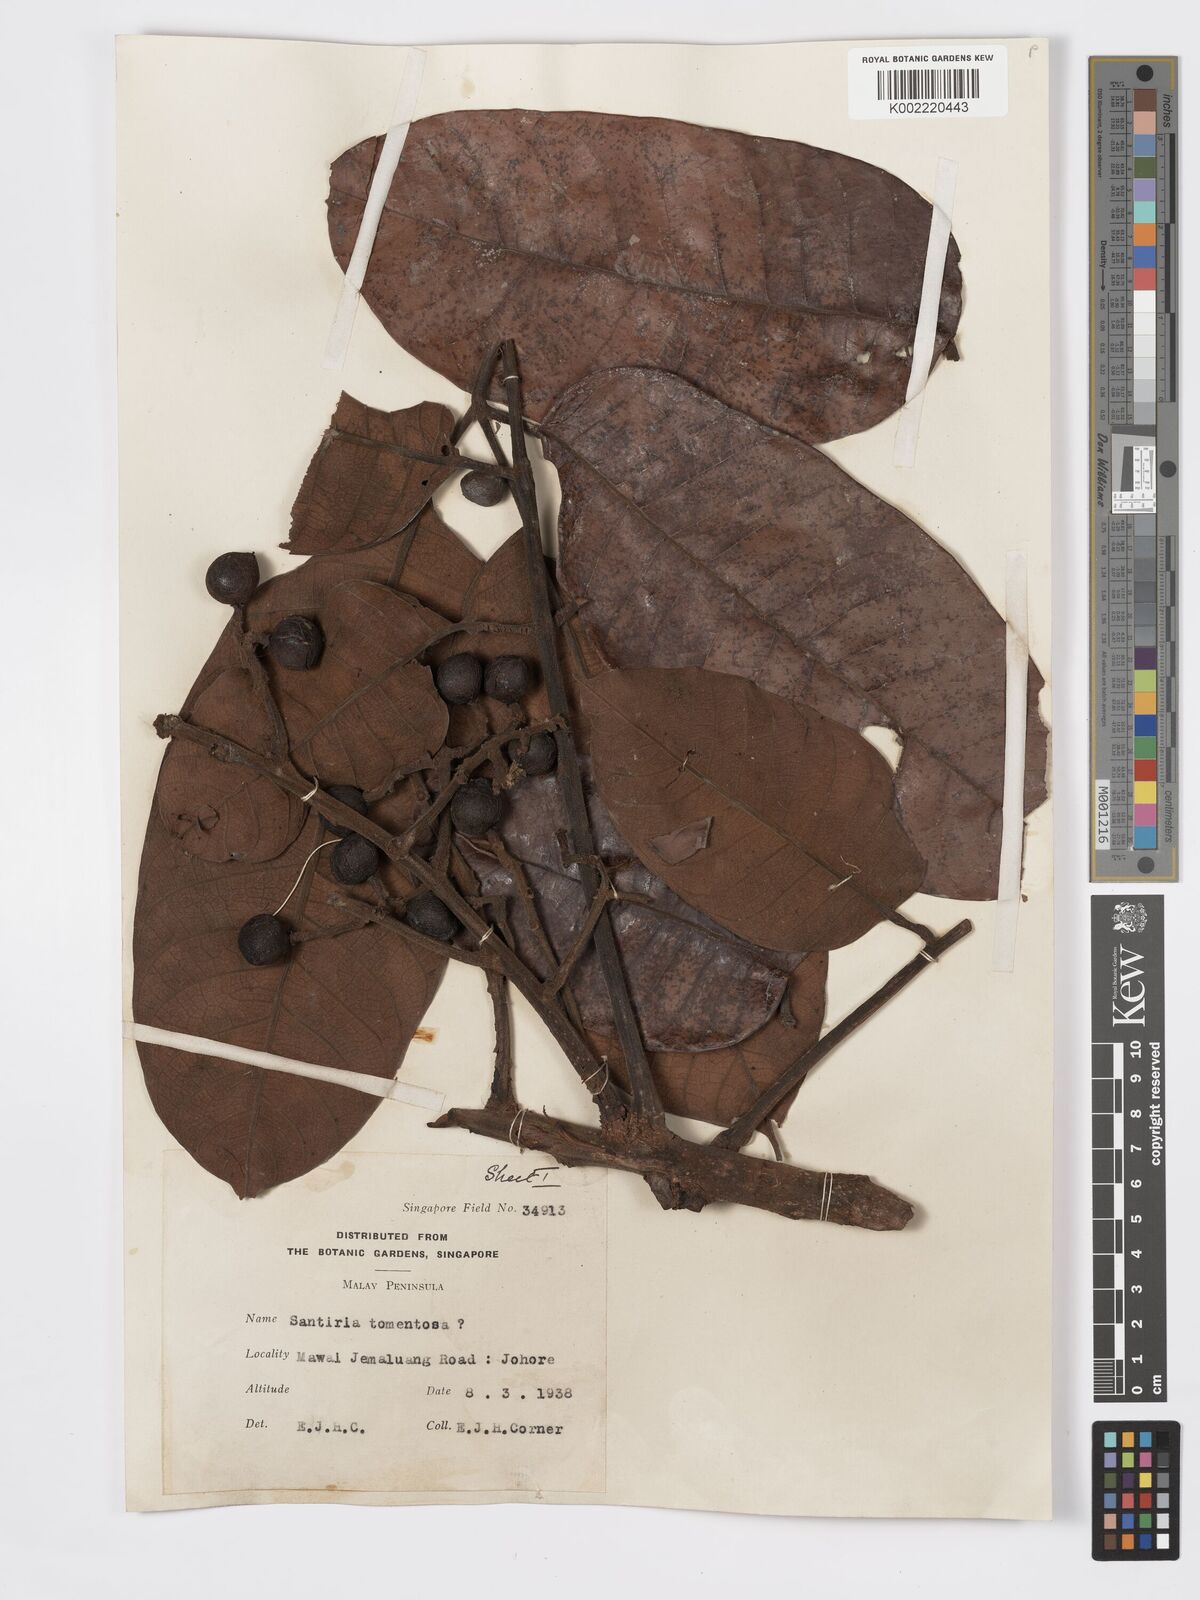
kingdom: Plantae
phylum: Tracheophyta
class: Magnoliopsida
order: Sapindales
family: Burseraceae
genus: Santiria
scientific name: Santiria tomentosa
